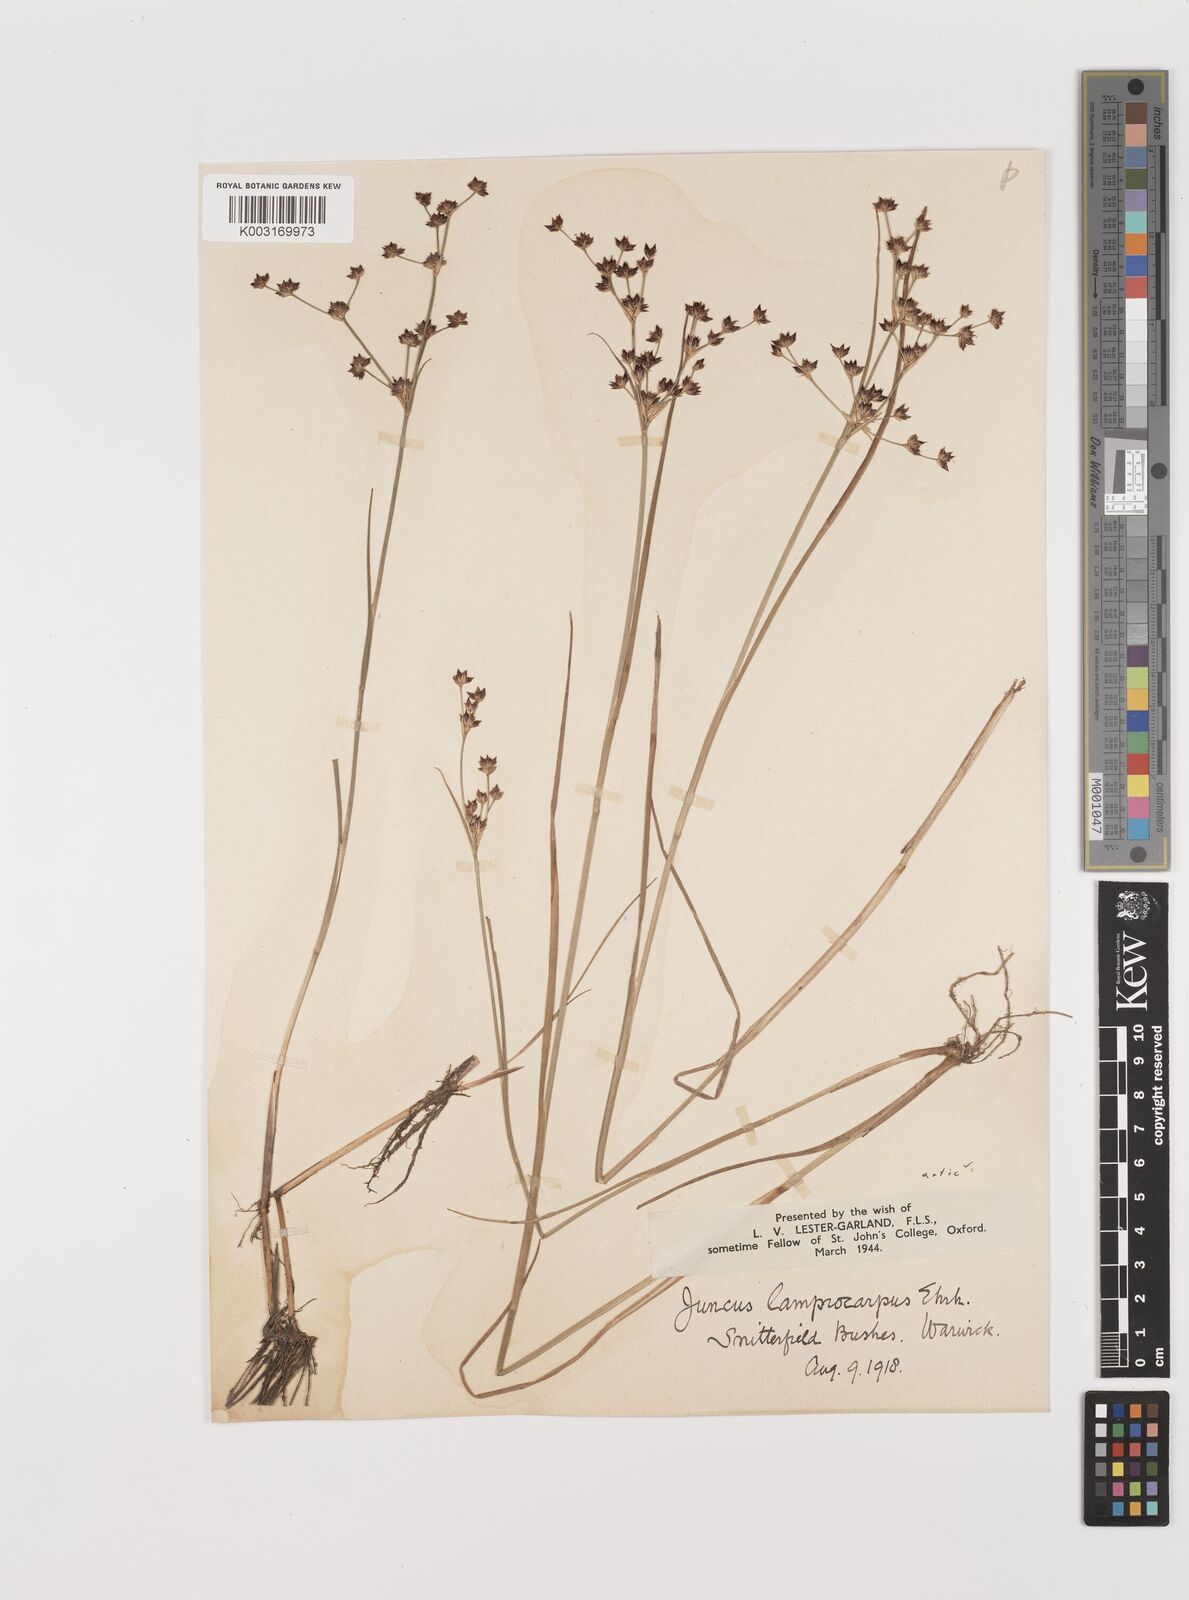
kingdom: Plantae
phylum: Tracheophyta
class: Liliopsida
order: Poales
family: Juncaceae
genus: Juncus
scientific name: Juncus articulatus
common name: Jointed rush
